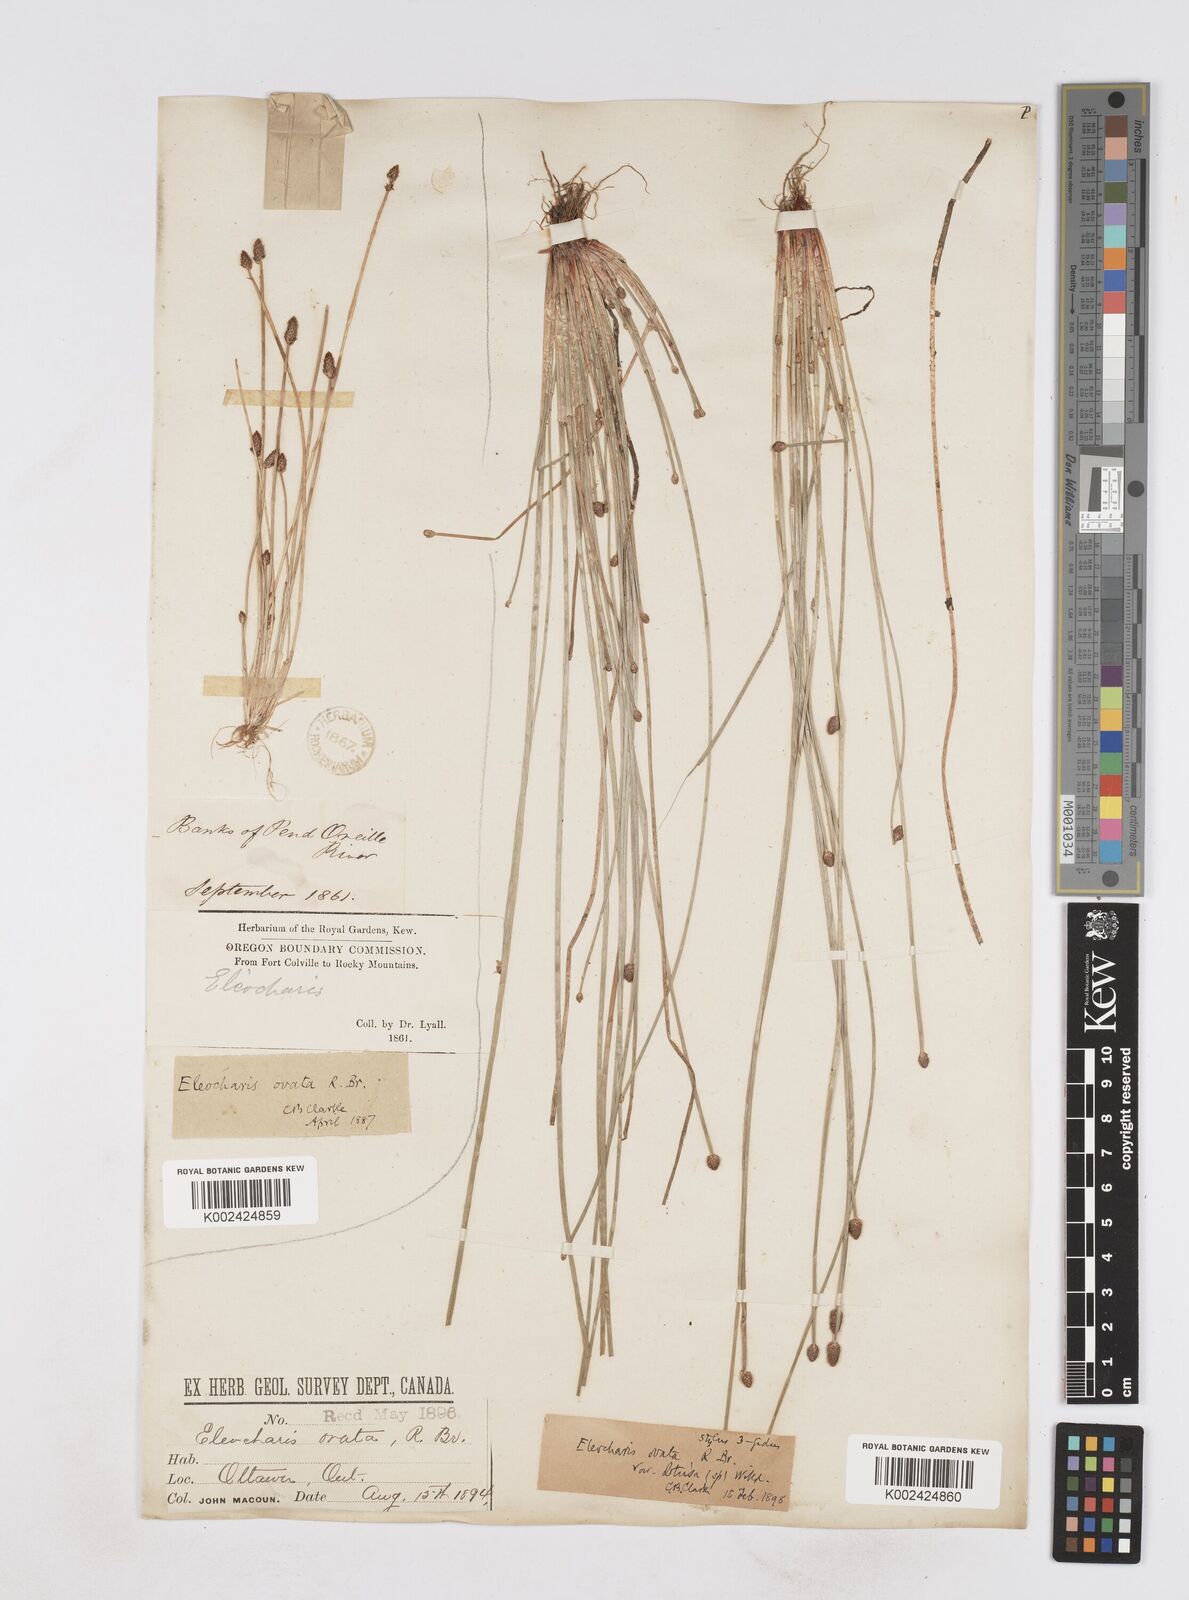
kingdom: Plantae
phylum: Tracheophyta
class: Liliopsida
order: Poales
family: Cyperaceae
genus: Eleocharis
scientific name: Eleocharis obtusa
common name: Blunt spikerush
